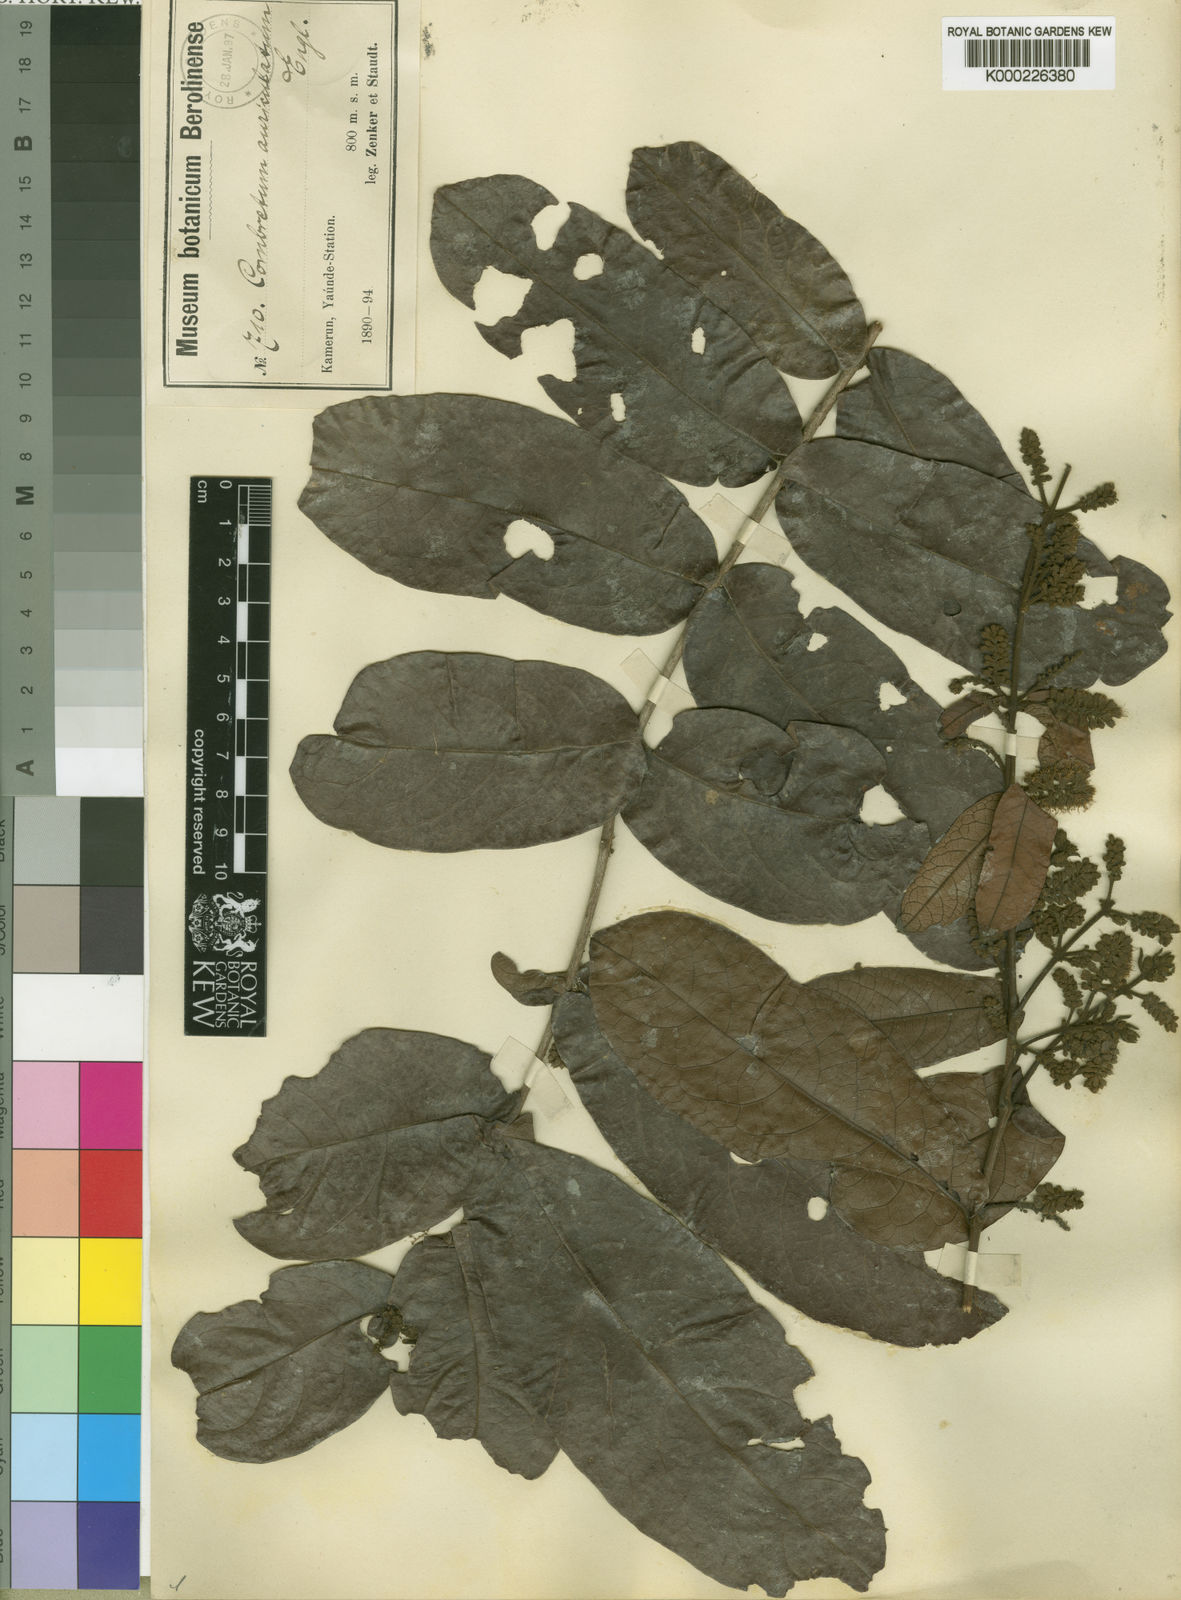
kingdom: Plantae
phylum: Tracheophyta
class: Magnoliopsida
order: Myrtales
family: Combretaceae
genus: Combretum
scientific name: Combretum auriculatum
